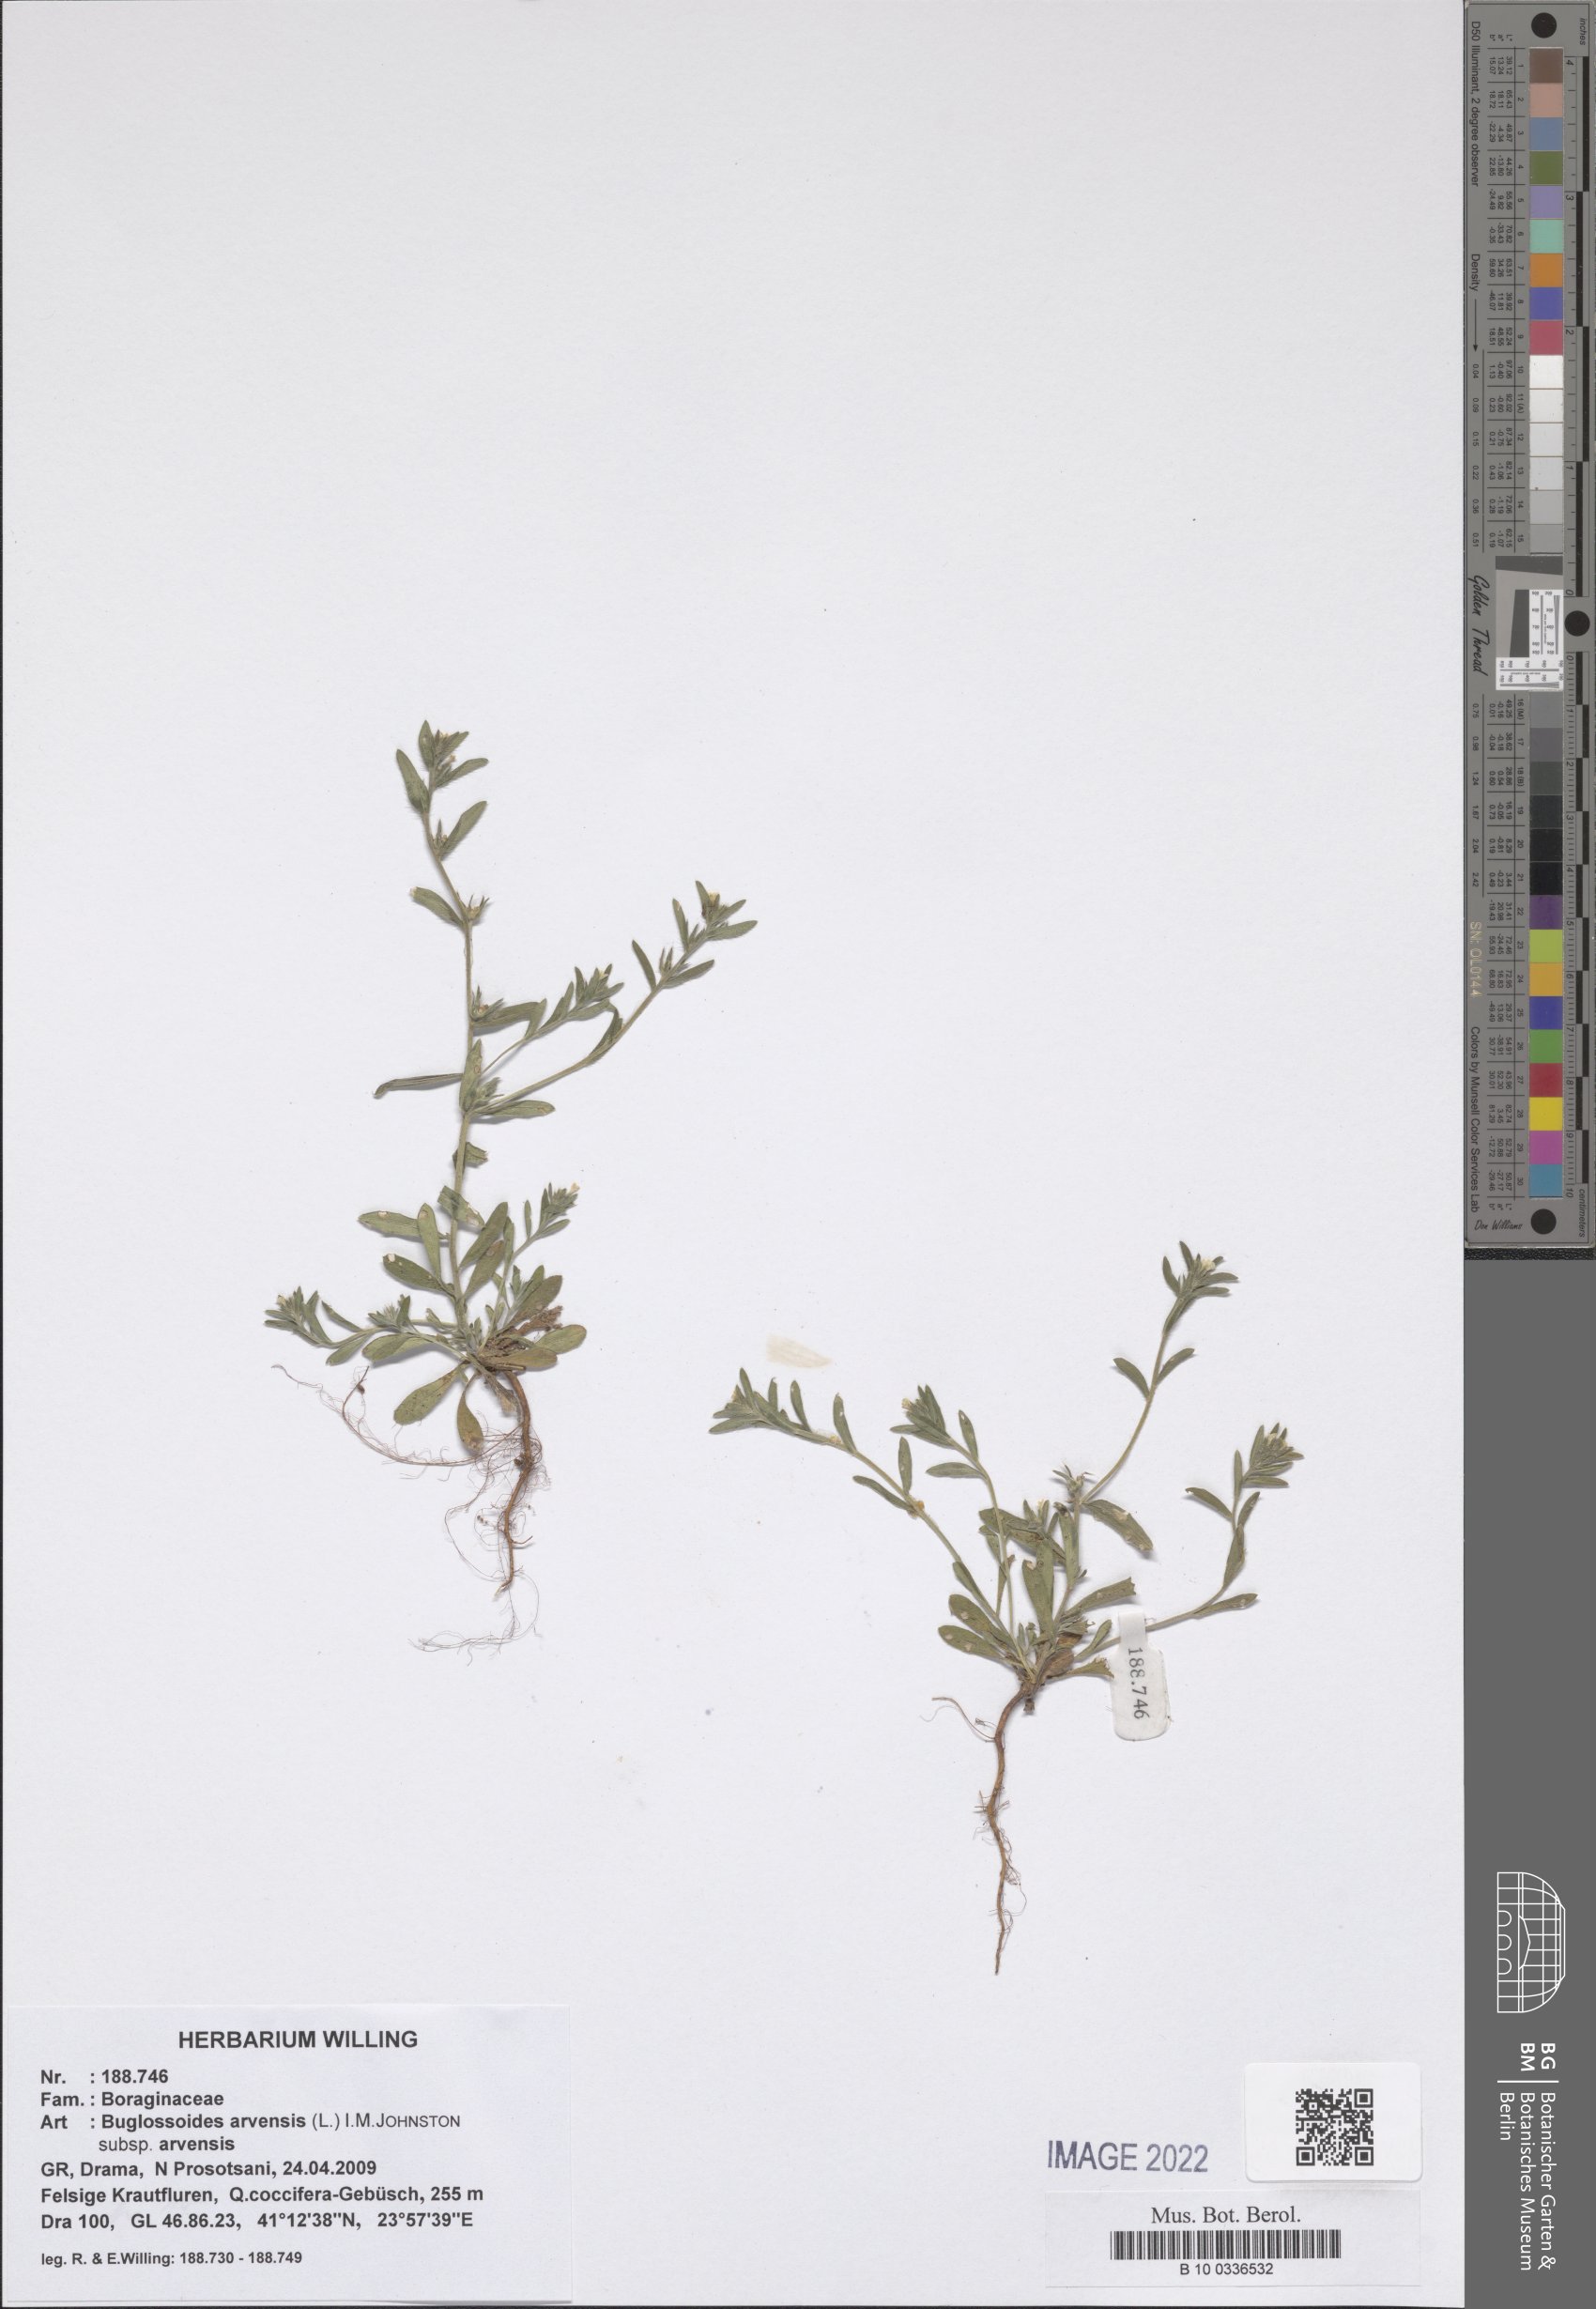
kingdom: Plantae
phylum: Tracheophyta
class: Magnoliopsida
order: Boraginales
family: Boraginaceae
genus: Buglossoides
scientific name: Buglossoides arvensis
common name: Corn gromwell
